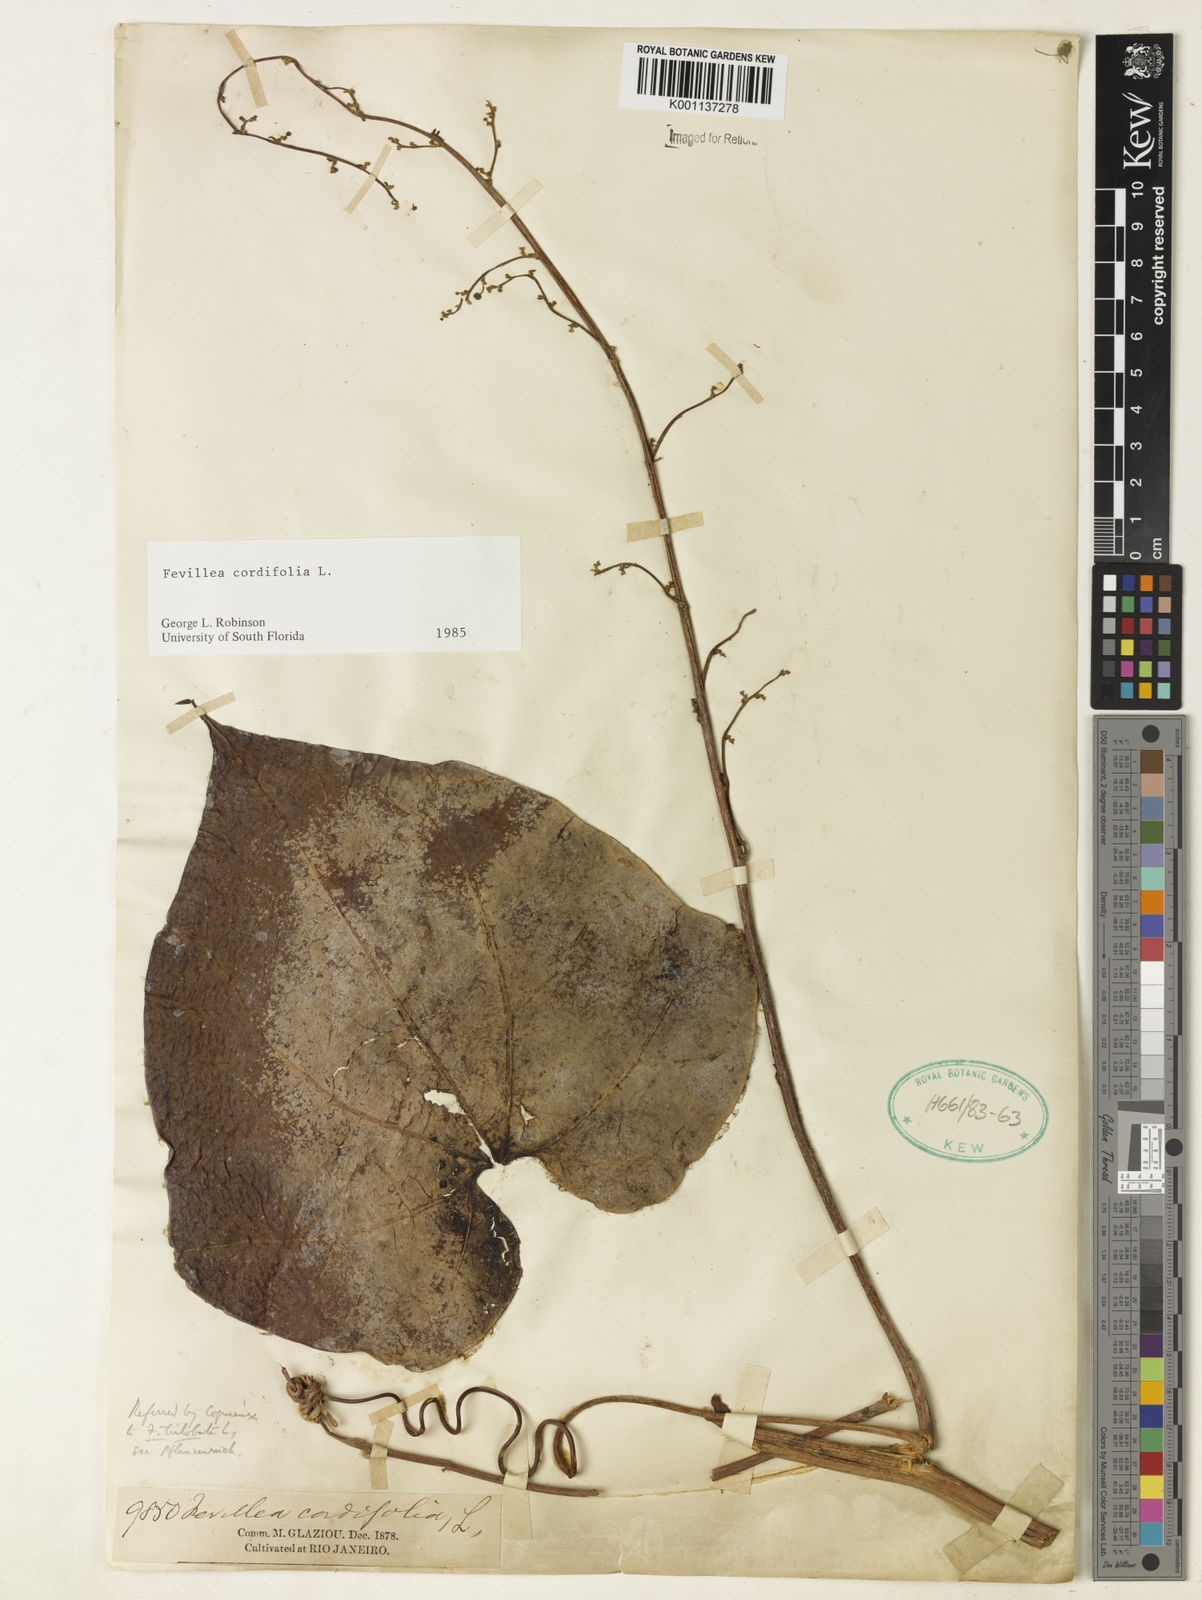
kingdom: Plantae
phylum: Tracheophyta
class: Magnoliopsida
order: Cucurbitales
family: Cucurbitaceae
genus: Fevillea
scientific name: Fevillea cordifolia
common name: Antidote-vine
